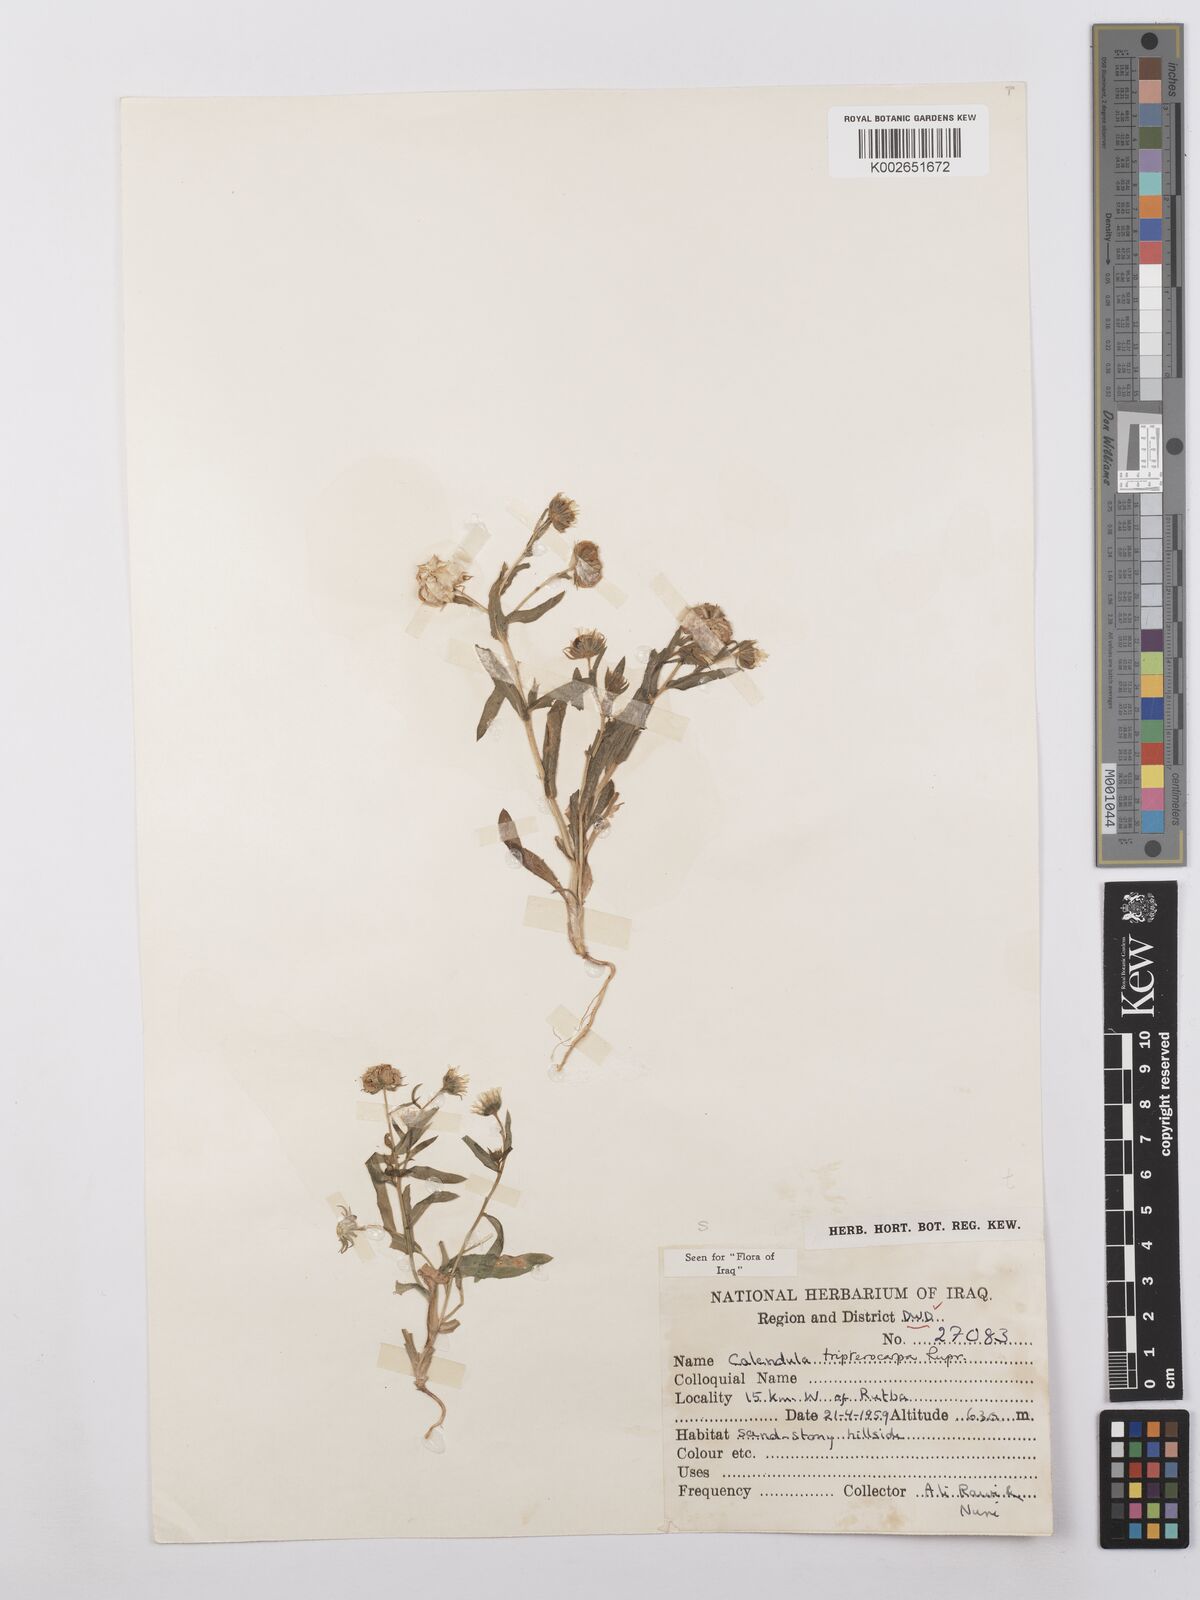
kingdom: Plantae
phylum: Tracheophyta
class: Magnoliopsida
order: Asterales
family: Asteraceae
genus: Calendula
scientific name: Calendula tripterocarpa
